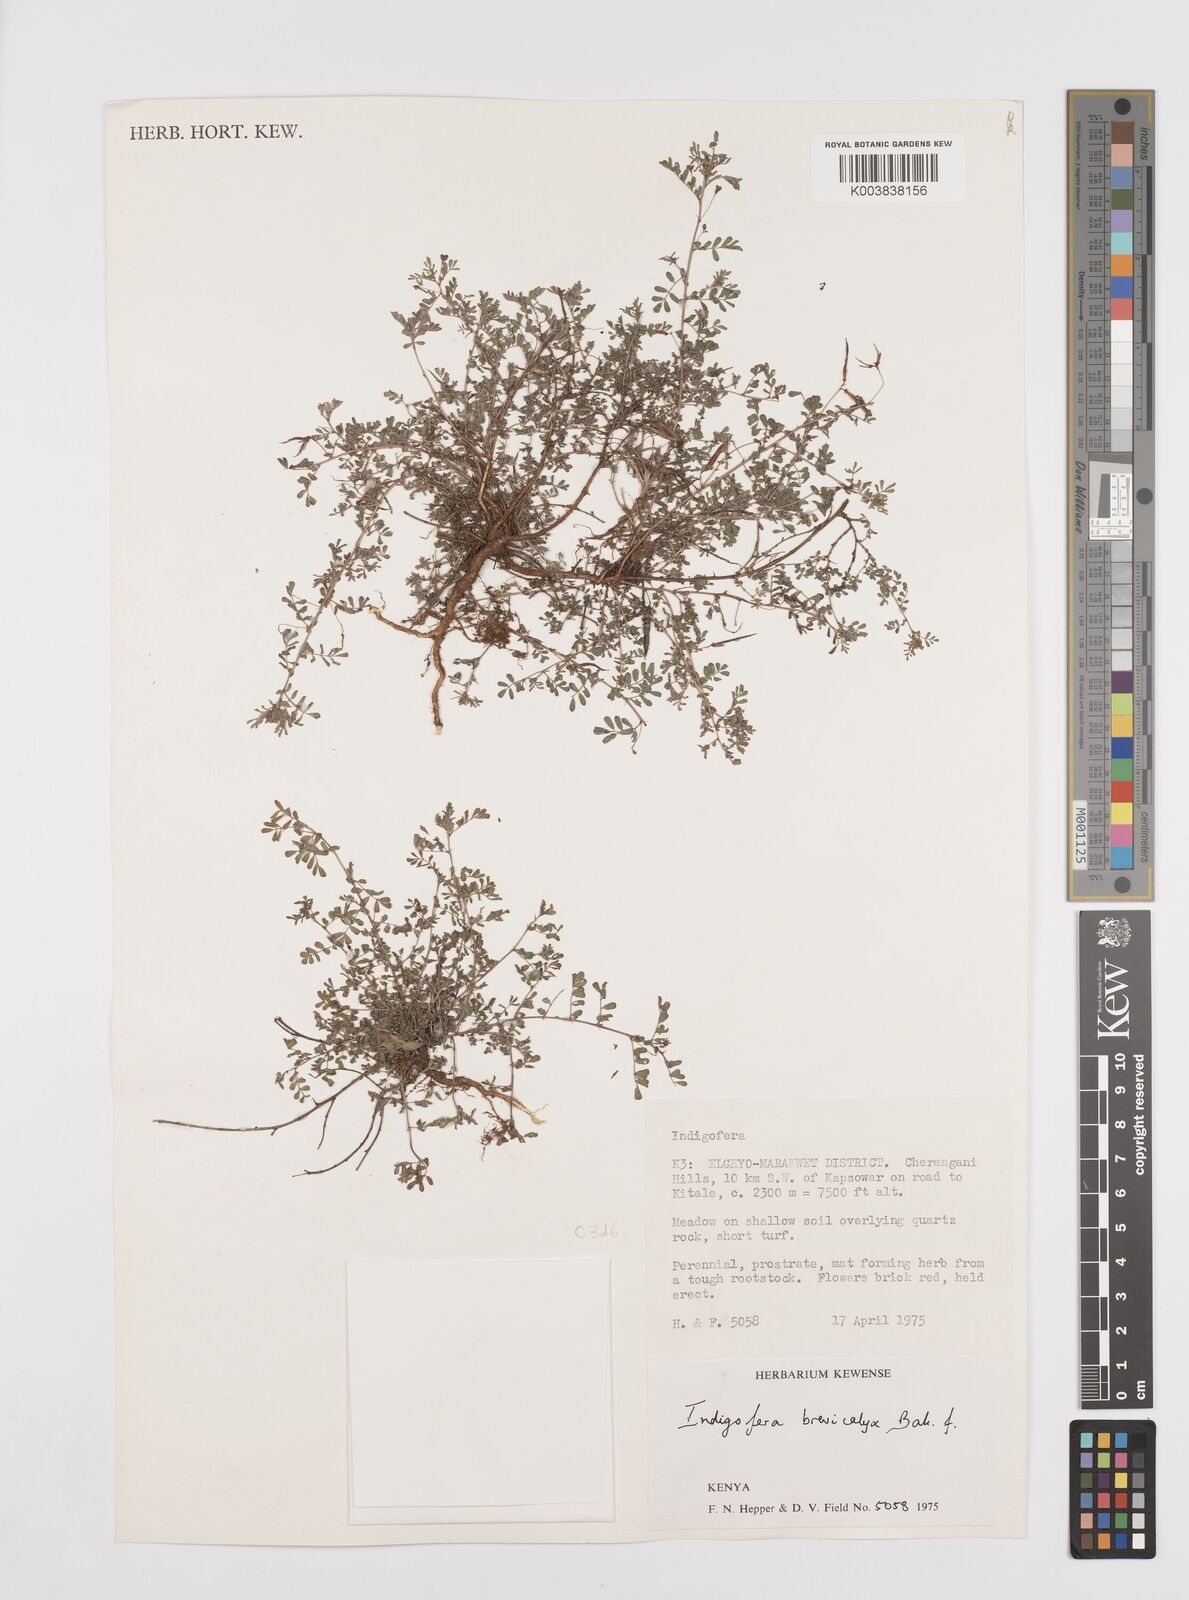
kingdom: Plantae
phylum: Tracheophyta
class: Magnoliopsida
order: Fabales
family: Fabaceae
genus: Indigofera
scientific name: Indigofera brevicalyx
